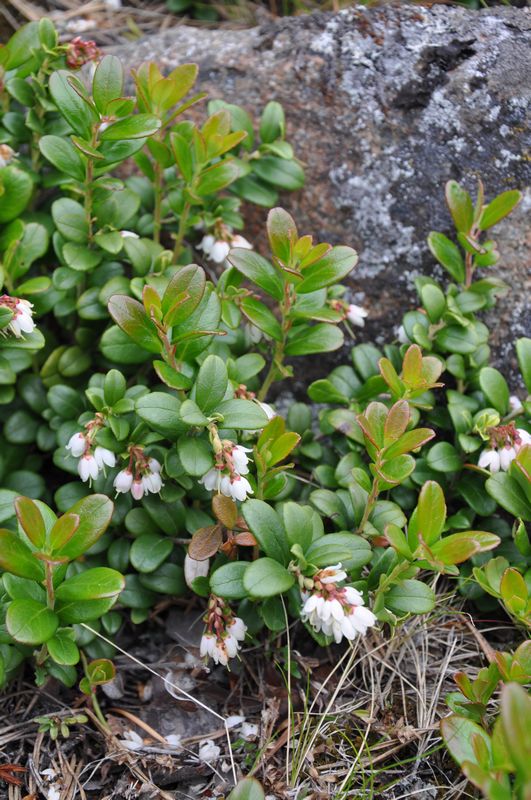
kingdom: Plantae
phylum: Tracheophyta
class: Magnoliopsida
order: Ericales
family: Ericaceae
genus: Vaccinium
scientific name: Vaccinium vitis-idaea
